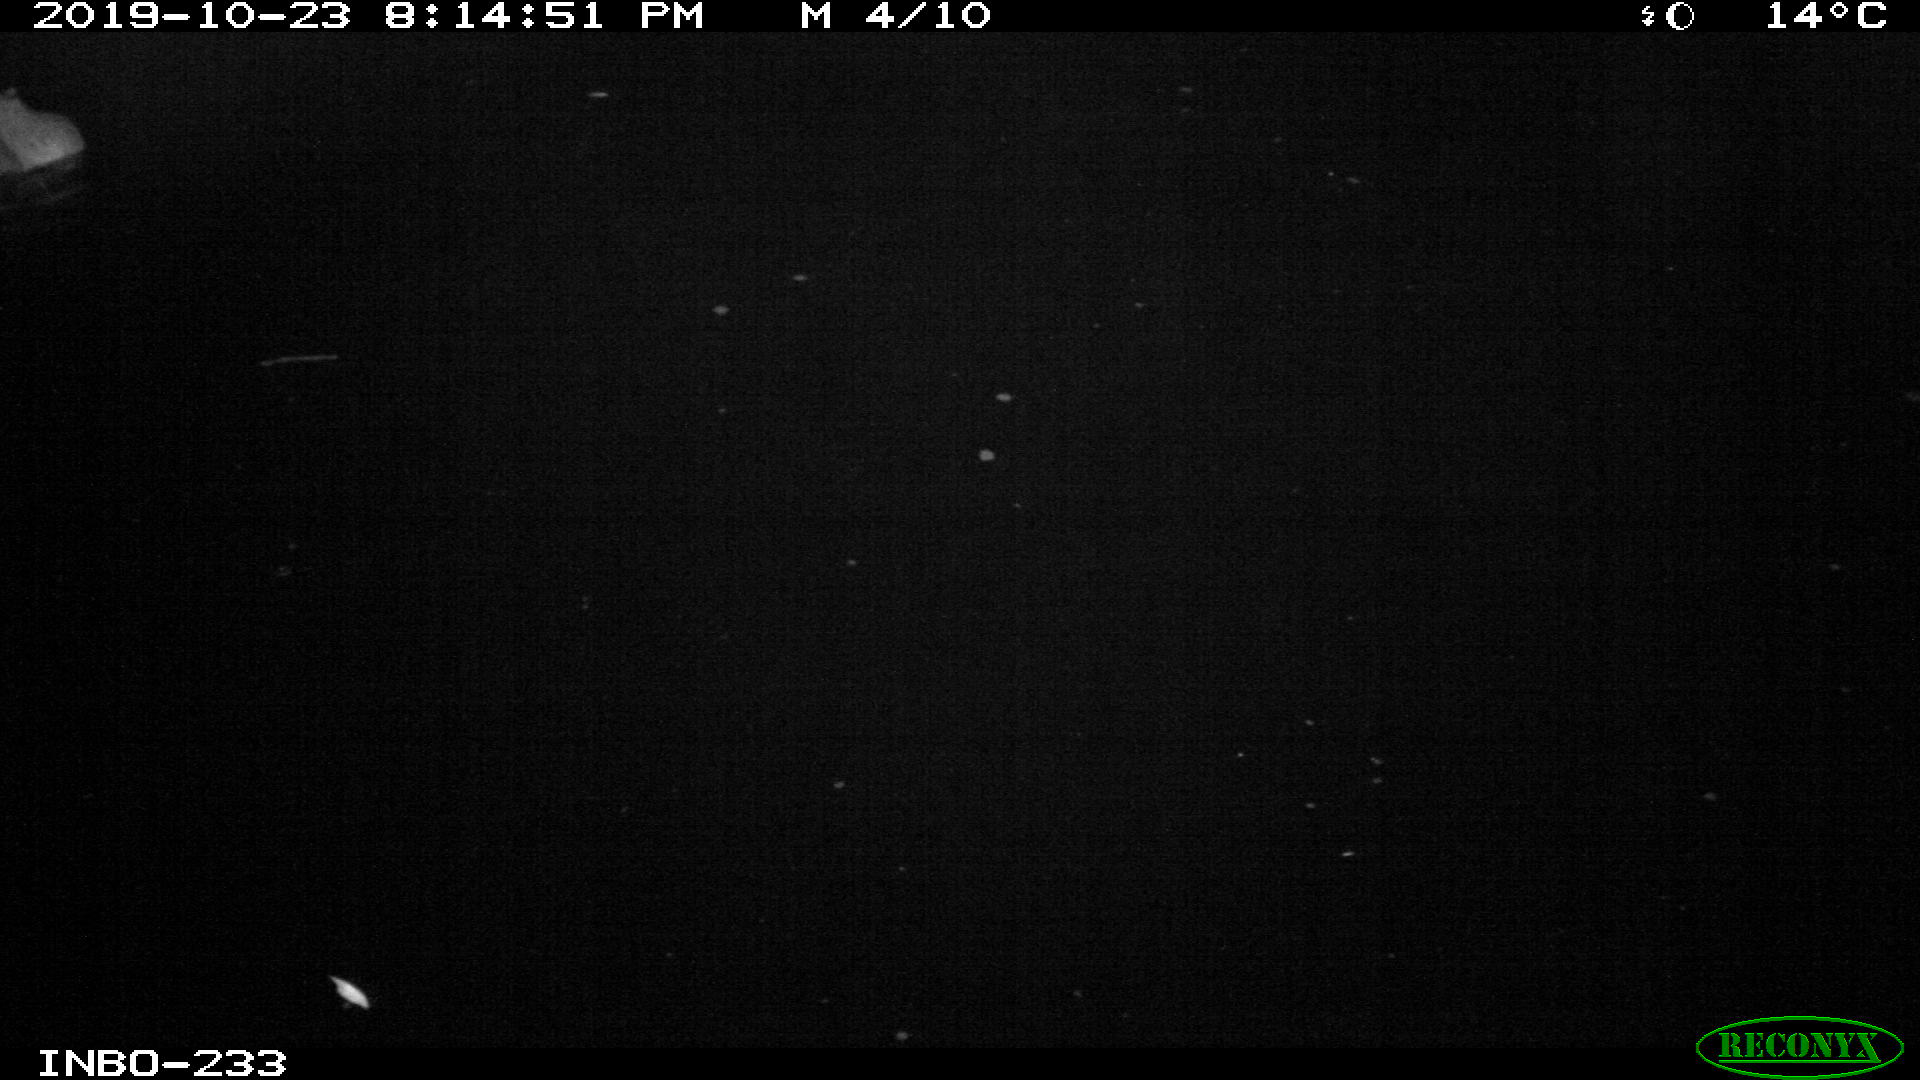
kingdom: Animalia
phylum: Chordata
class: Mammalia
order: Rodentia
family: Muridae
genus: Rattus
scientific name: Rattus norvegicus
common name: Brown rat
